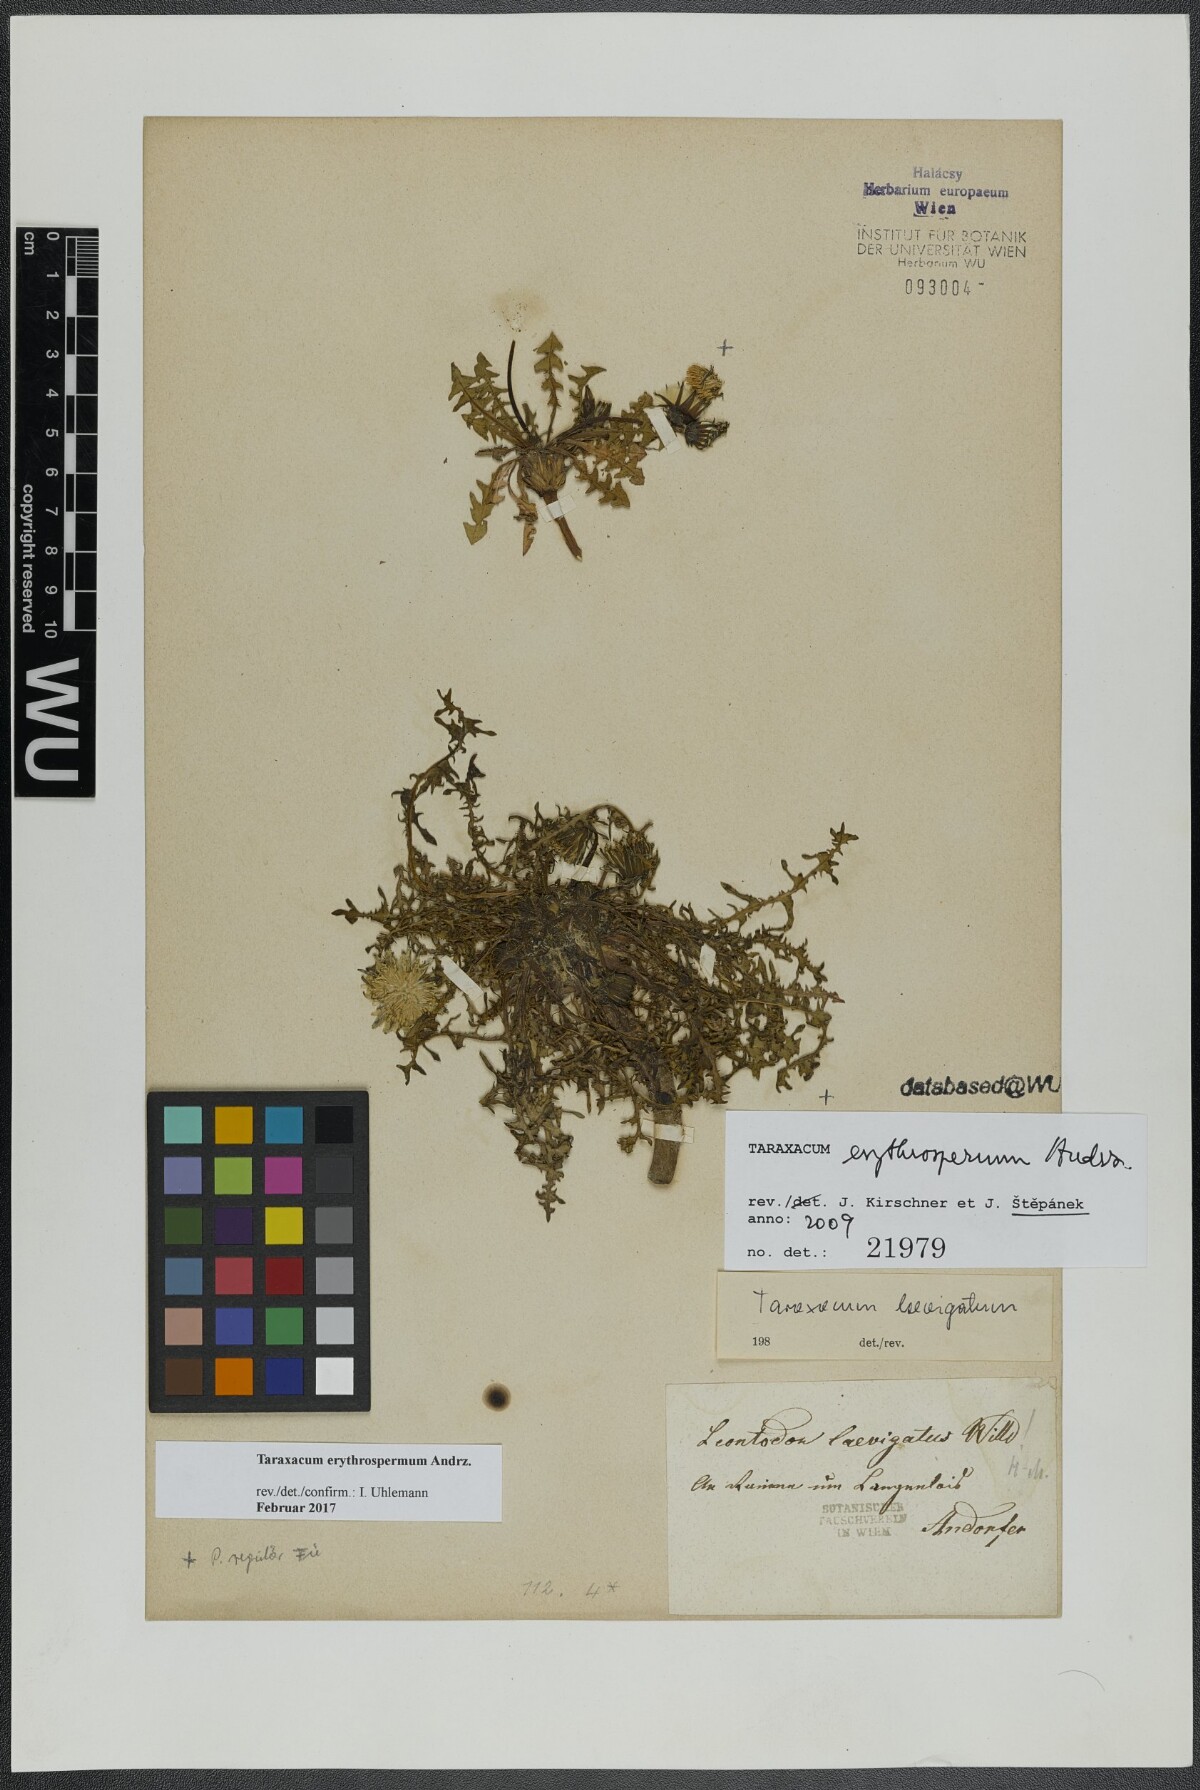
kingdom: Plantae
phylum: Tracheophyta
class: Magnoliopsida
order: Asterales
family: Asteraceae
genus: Taraxacum
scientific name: Taraxacum erythrospermum
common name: Rock dandelion
